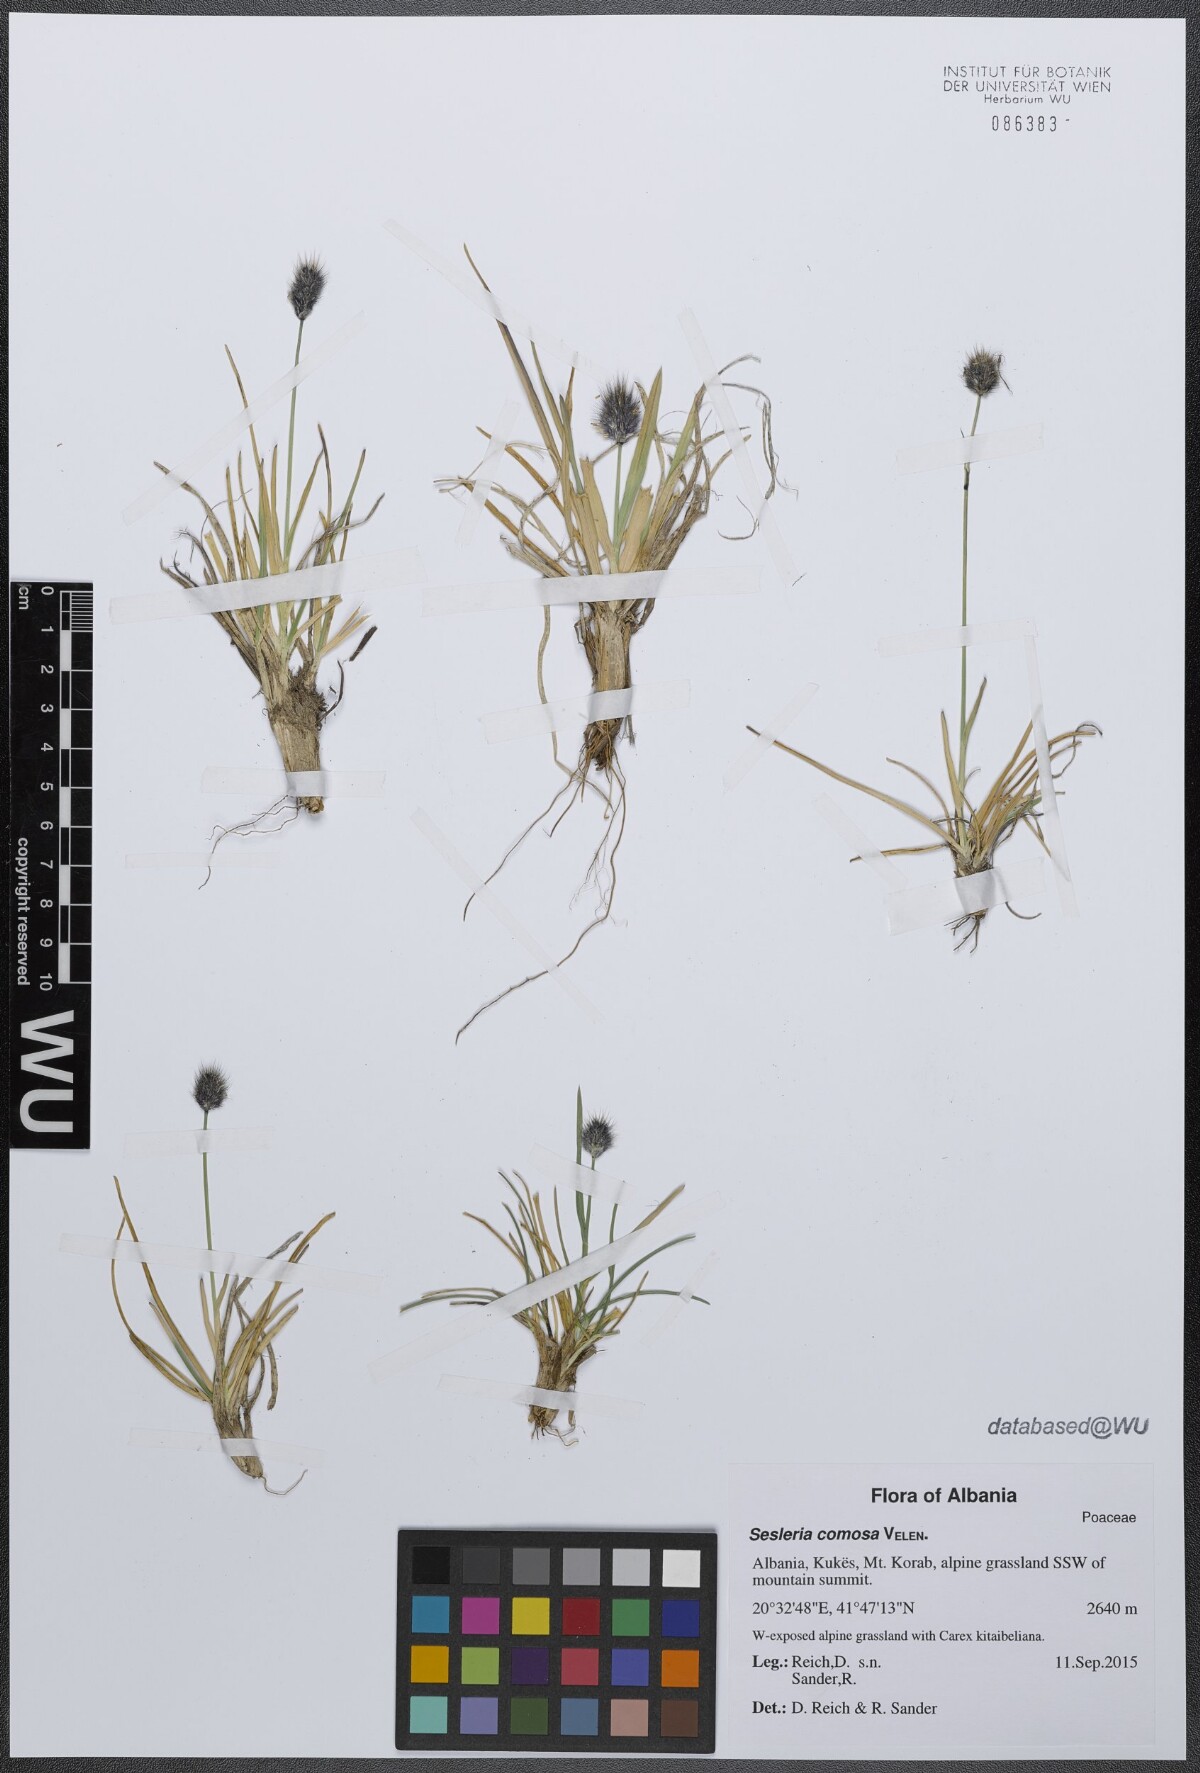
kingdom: Plantae
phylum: Tracheophyta
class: Liliopsida
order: Poales
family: Poaceae
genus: Sesleria
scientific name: Sesleria comosa
